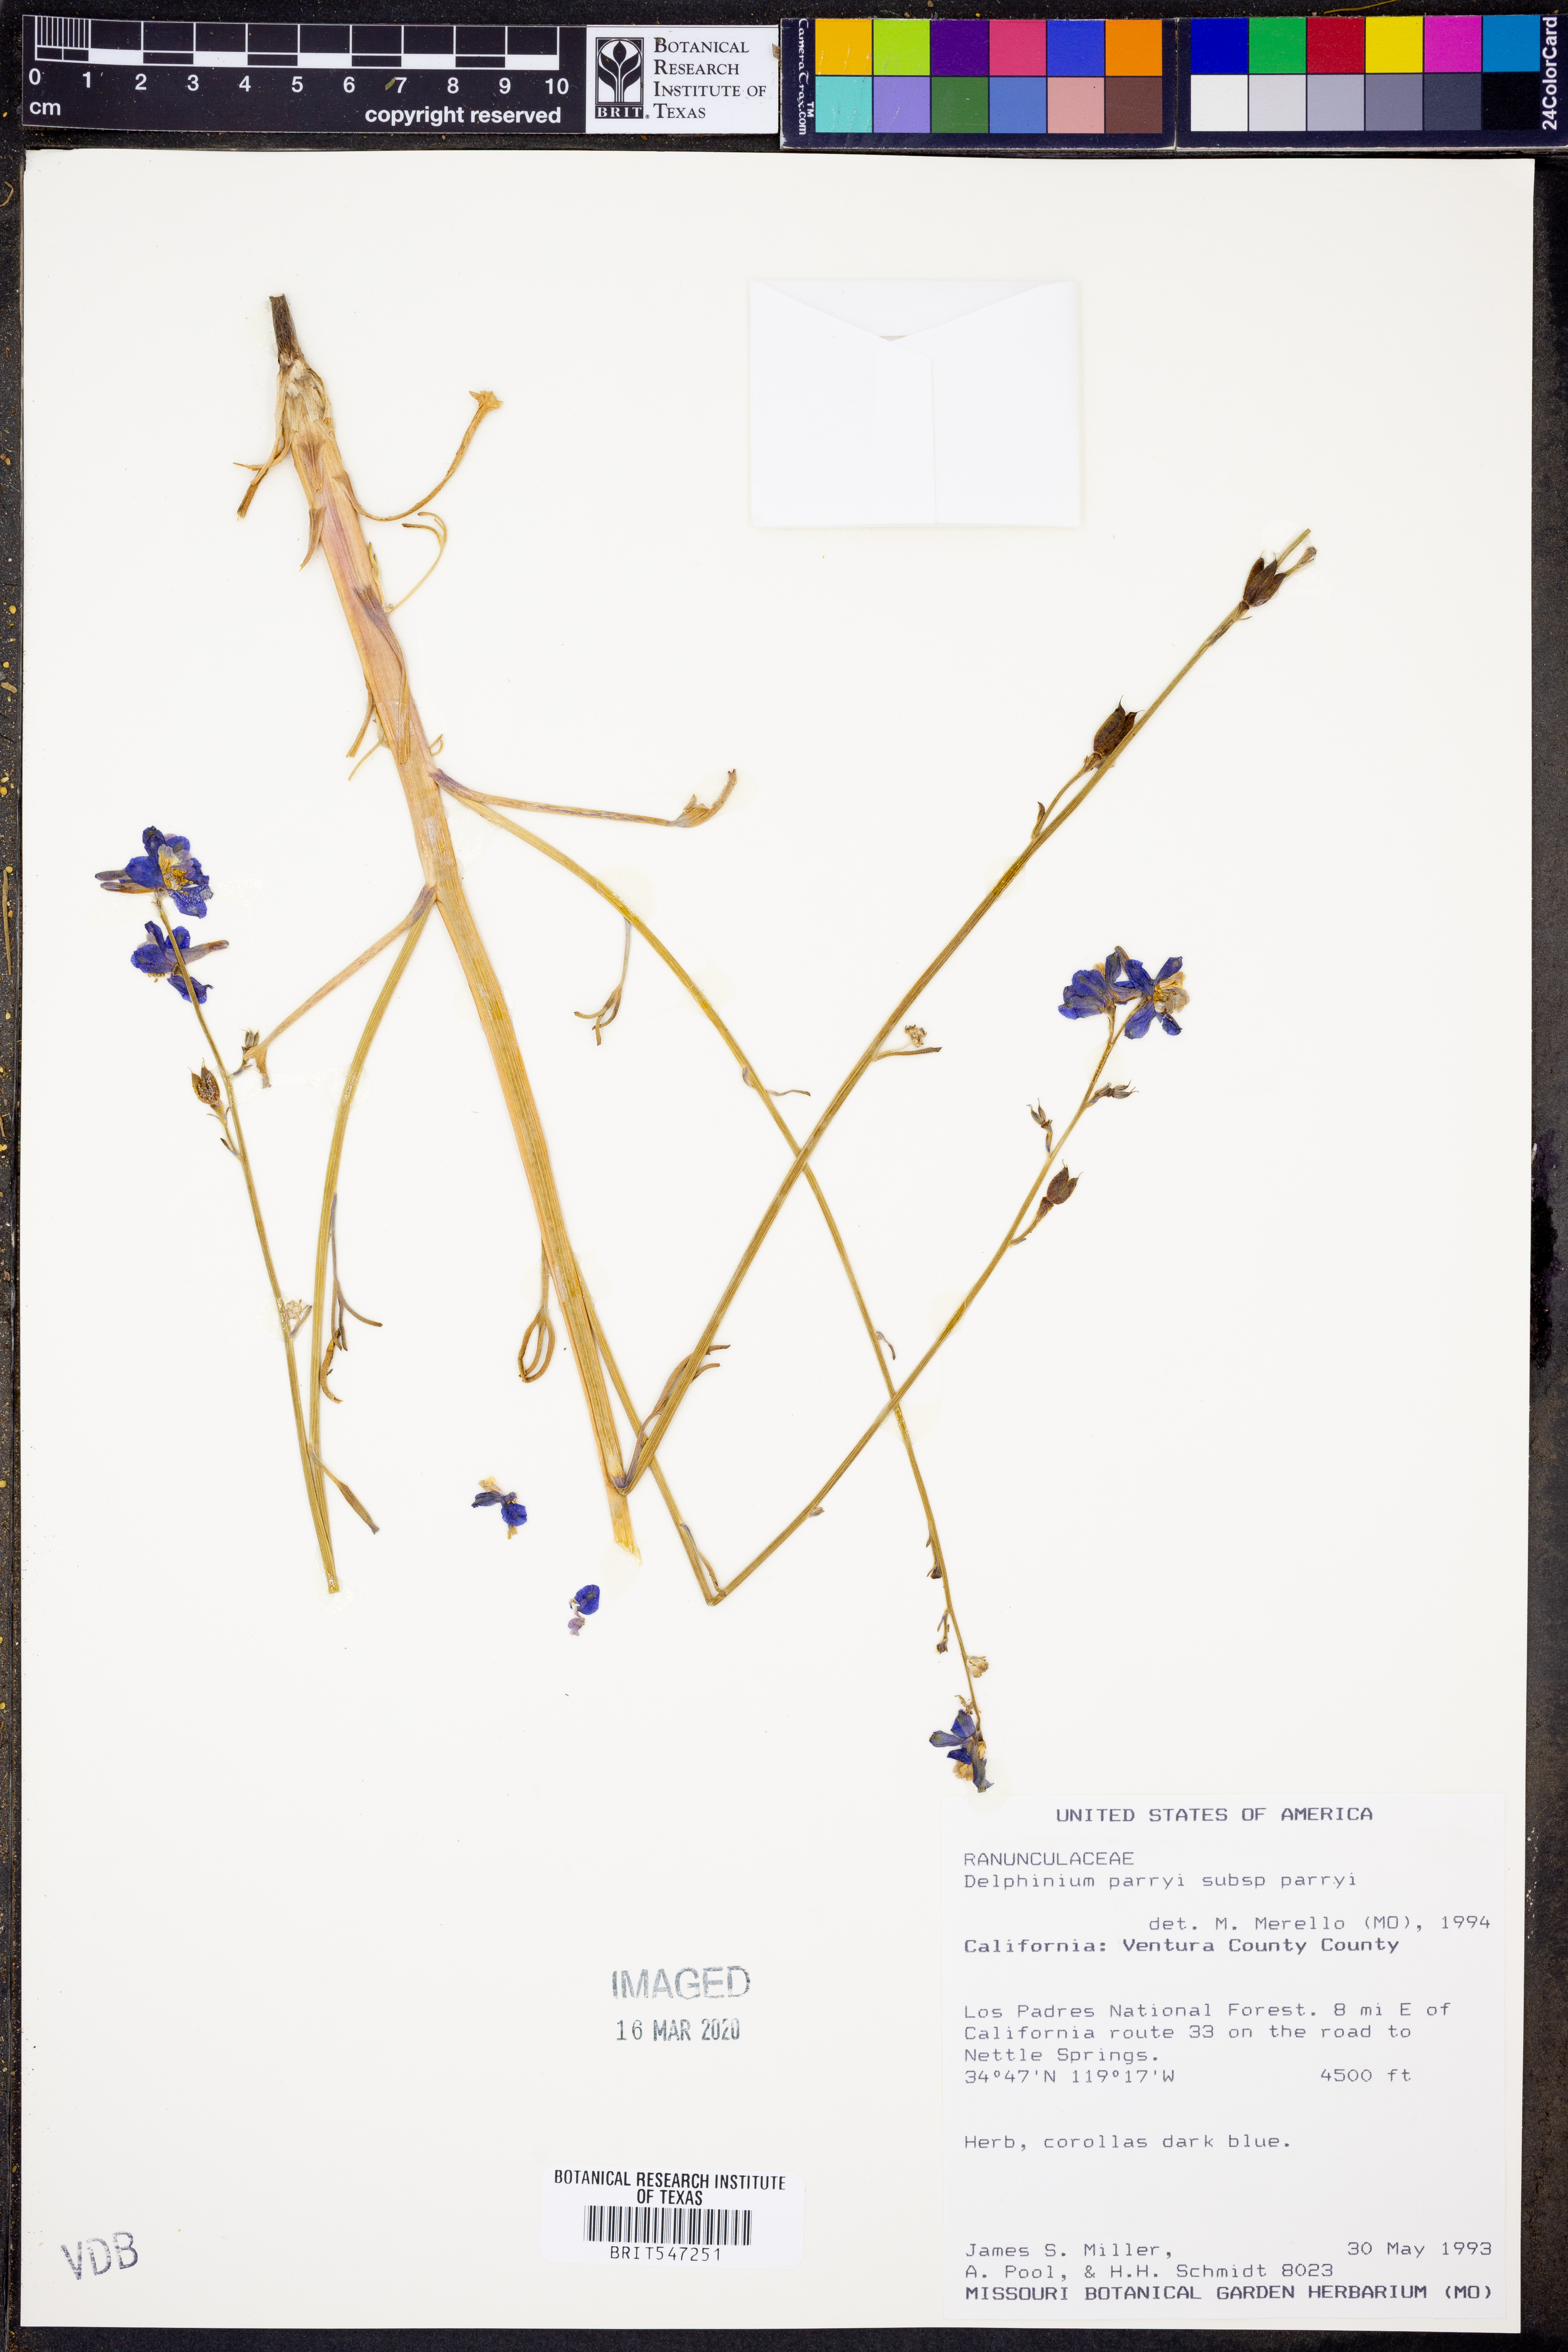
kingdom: Plantae
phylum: Tracheophyta
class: Magnoliopsida
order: Ranunculales
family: Ranunculaceae
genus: Delphinium
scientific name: Delphinium parryi
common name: Parry's larkspur
